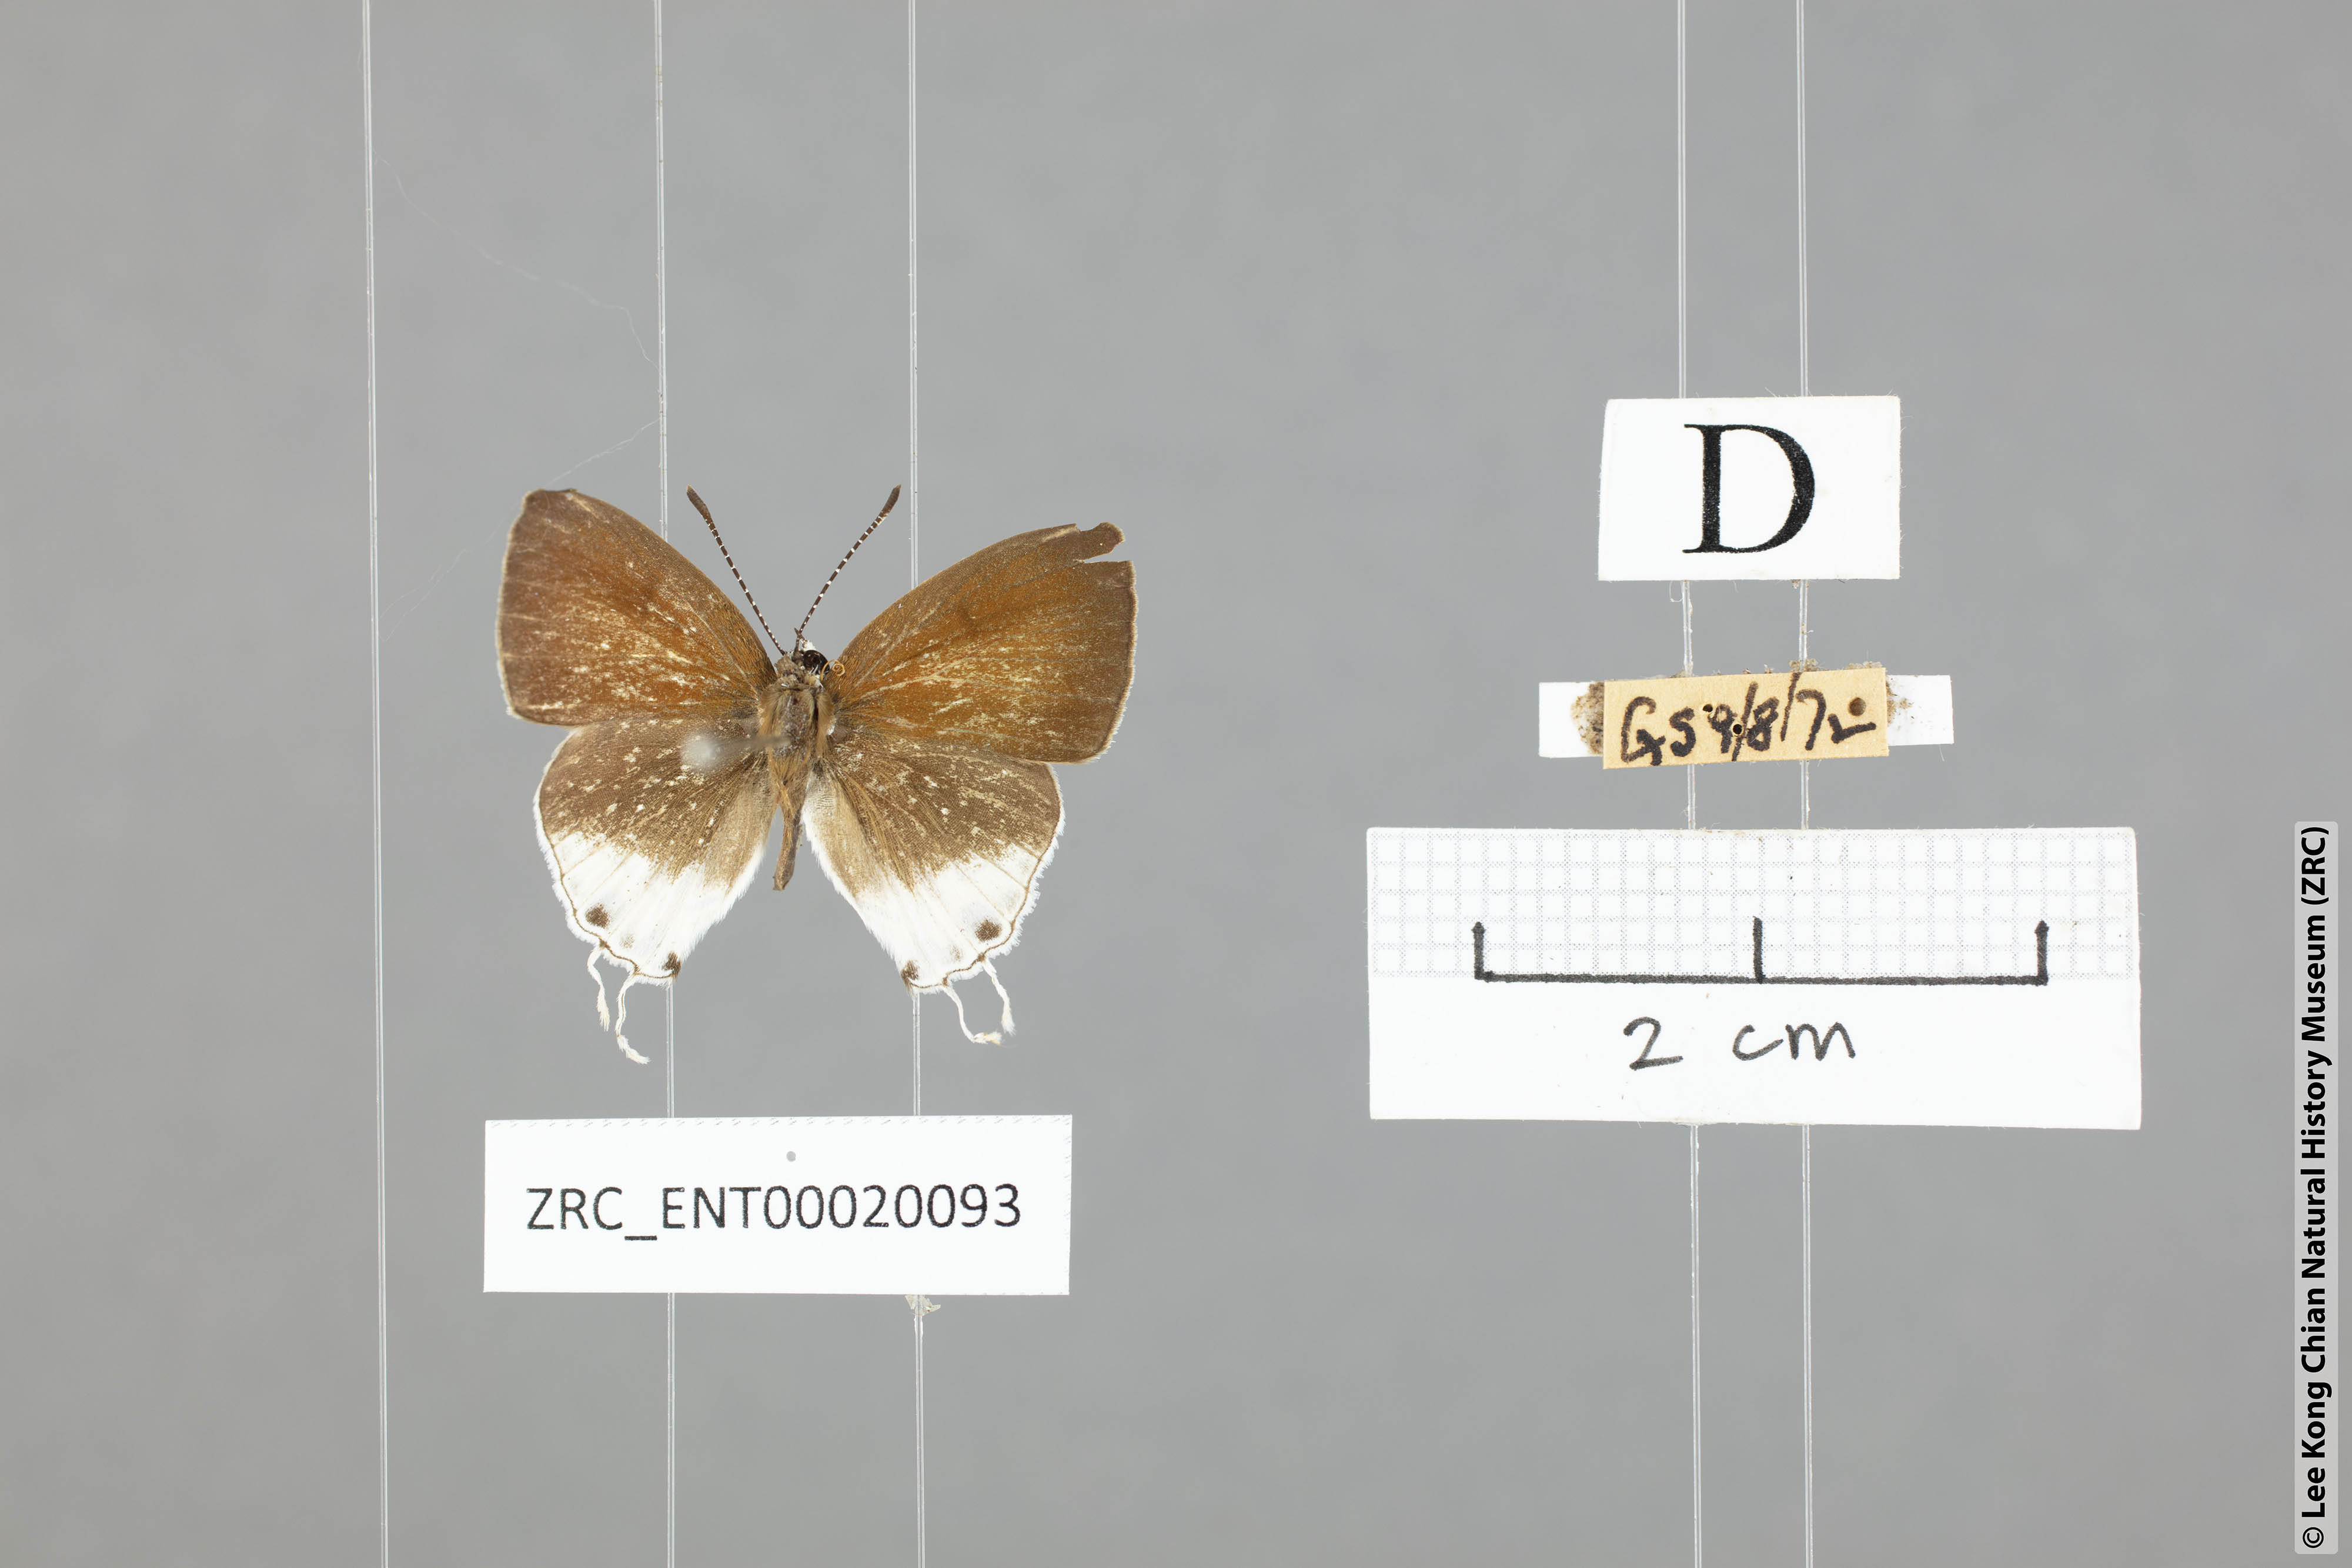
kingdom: Animalia
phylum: Arthropoda
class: Insecta
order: Lepidoptera
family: Lycaenidae
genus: Chliaria
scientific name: Chliaria balua
